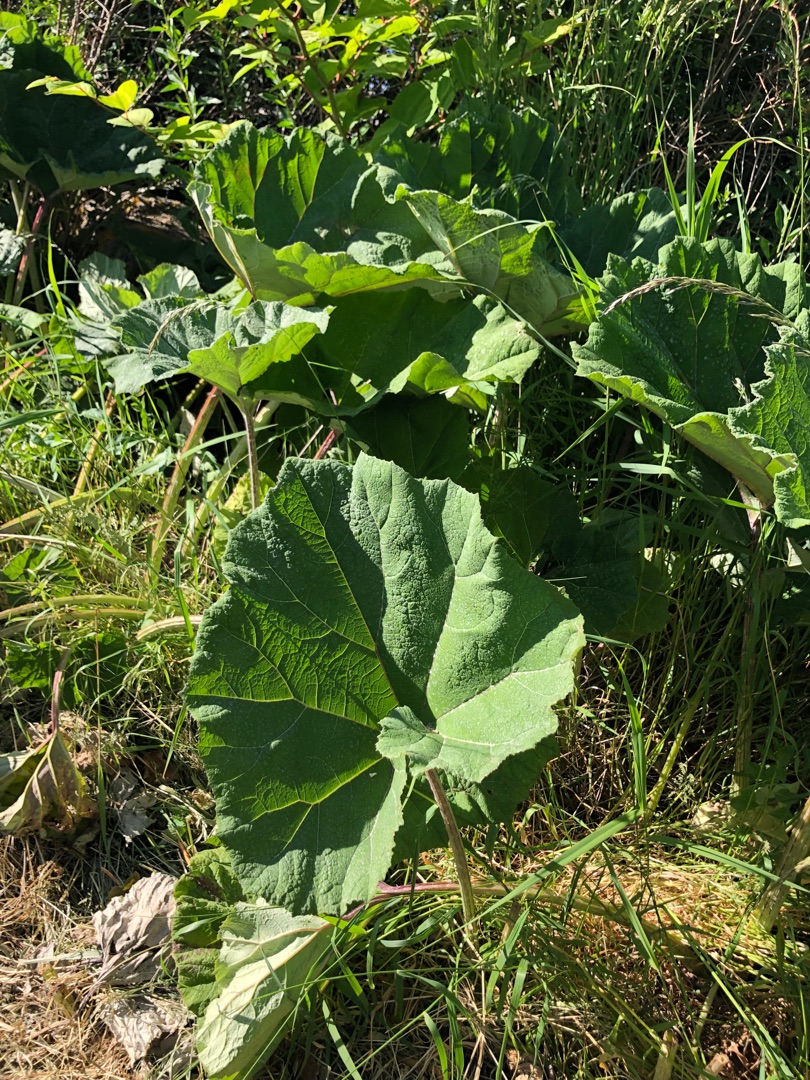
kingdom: Plantae
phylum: Tracheophyta
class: Magnoliopsida
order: Asterales
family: Asteraceae
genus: Petasites
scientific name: Petasites hybridus
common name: Rød hestehov
